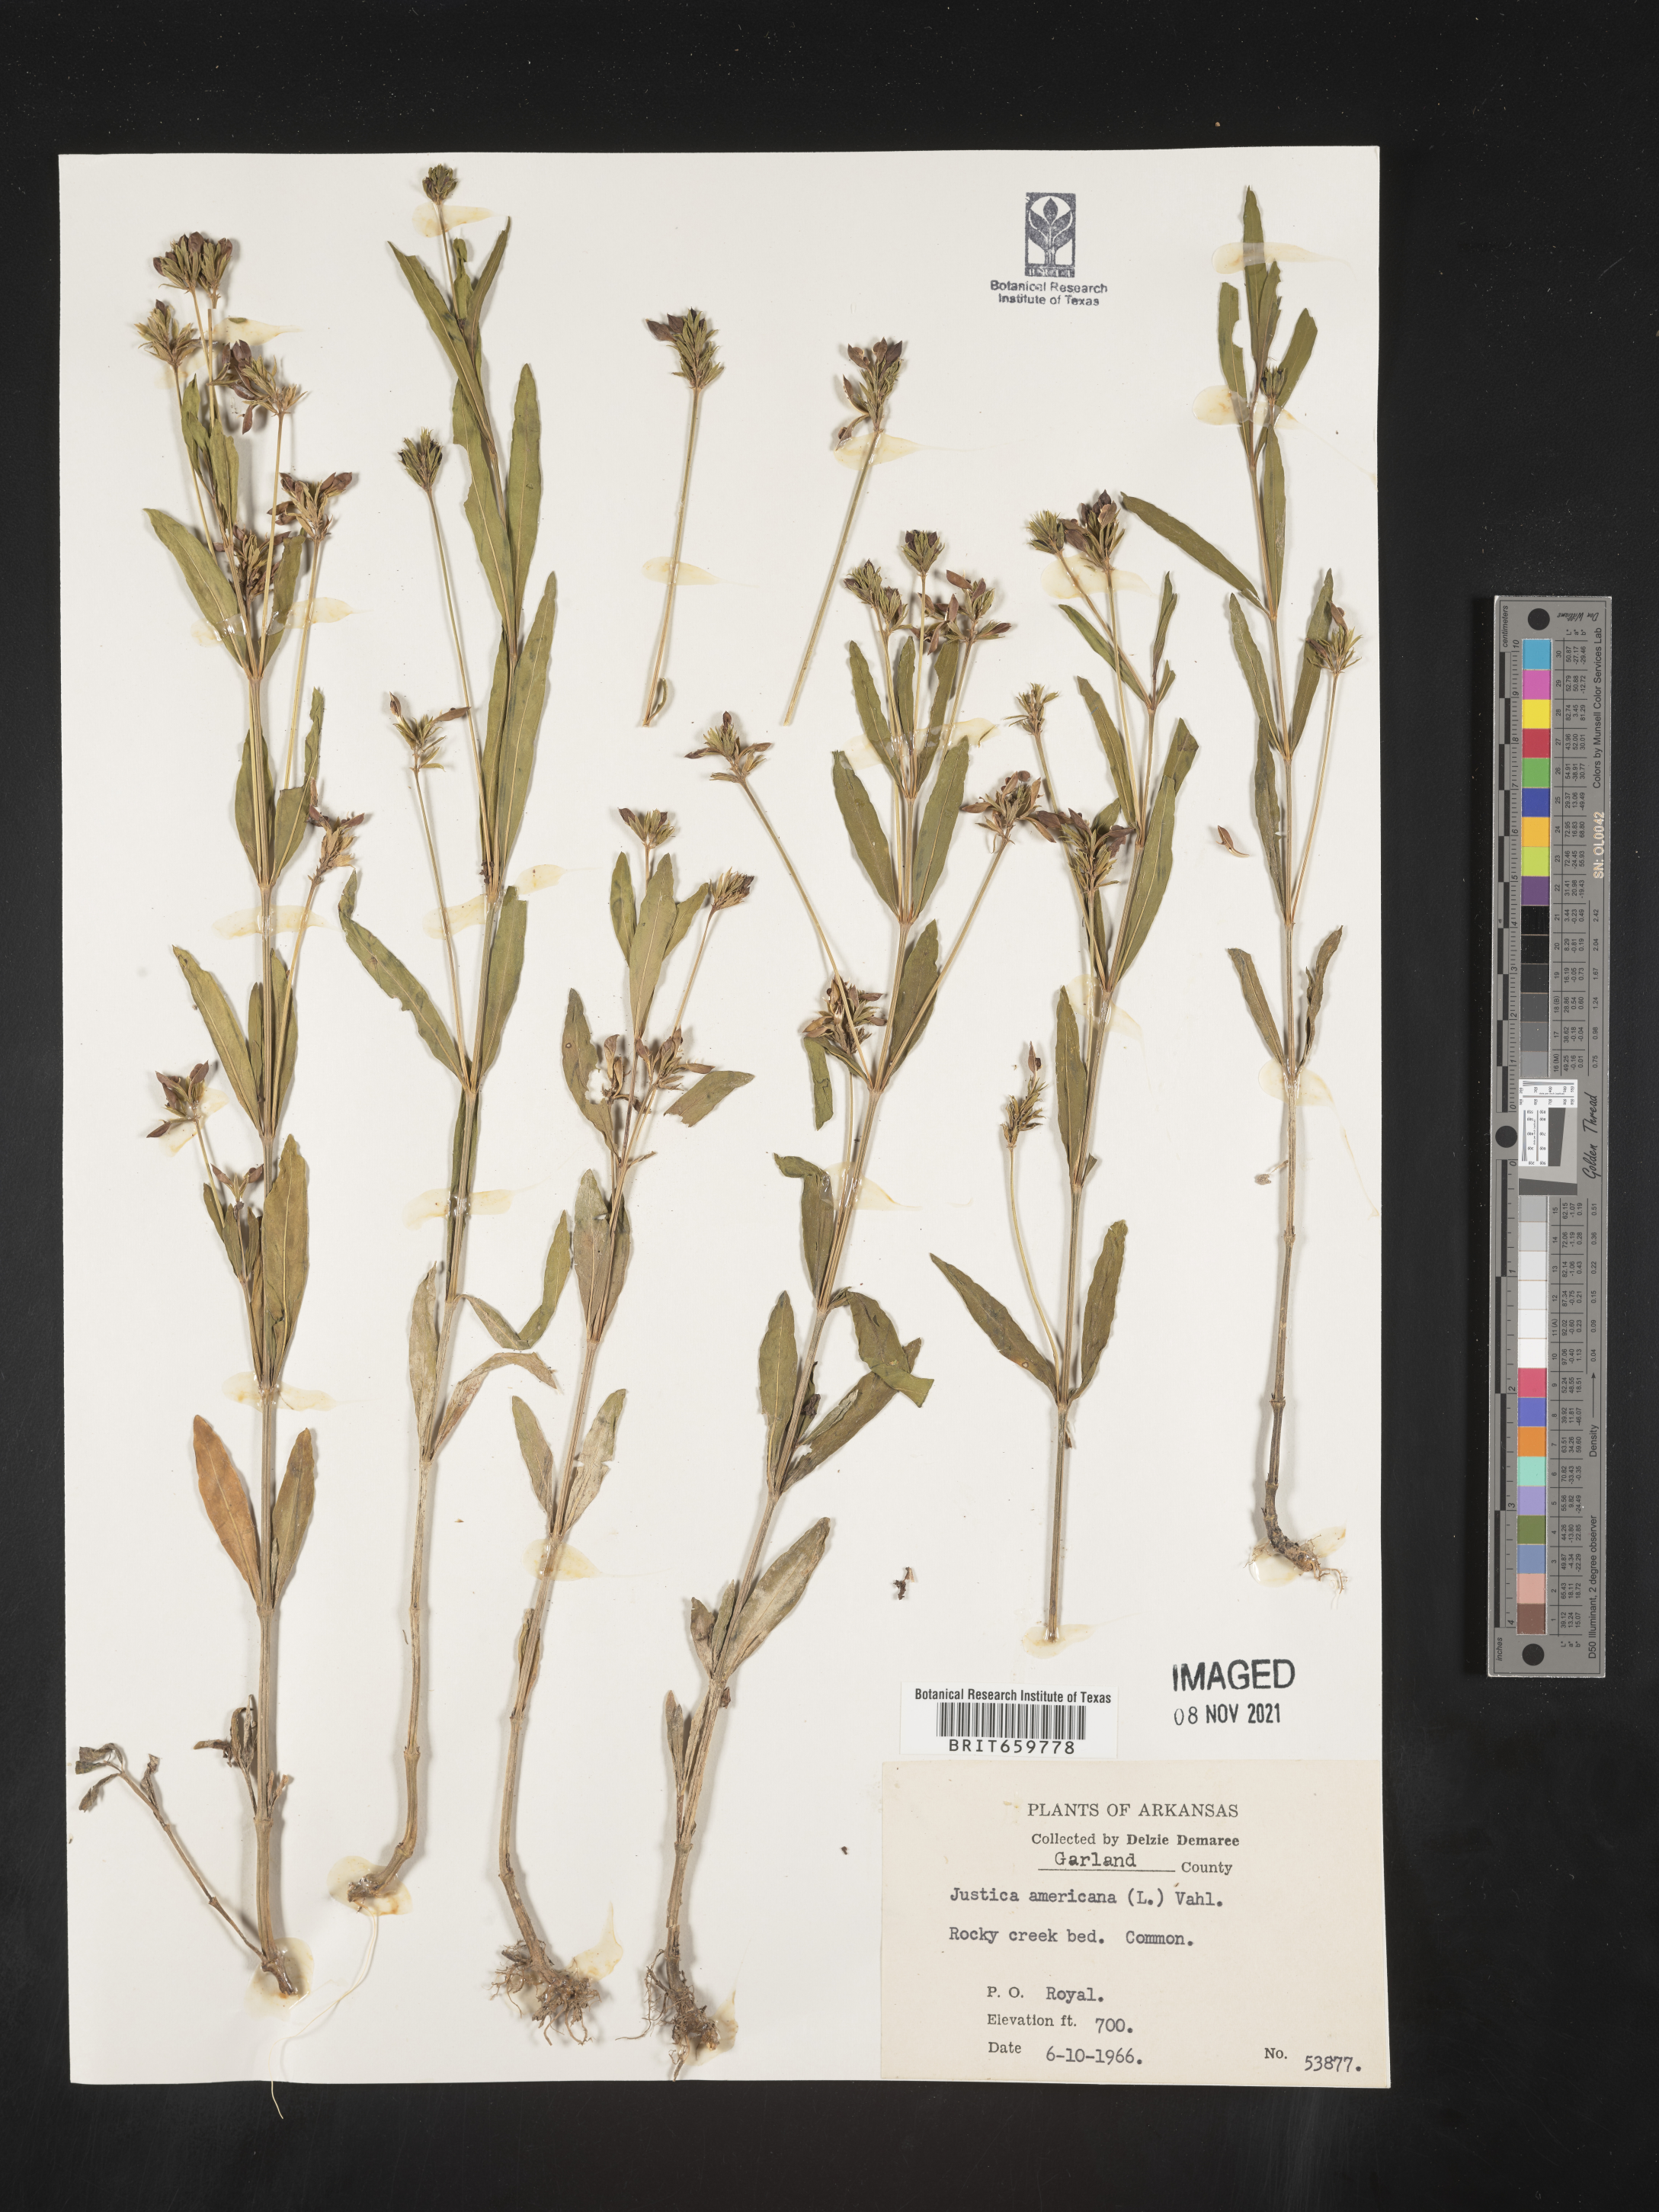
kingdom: Plantae
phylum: Tracheophyta
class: Magnoliopsida
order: Lamiales
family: Acanthaceae
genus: Dianthera
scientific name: Dianthera americana
